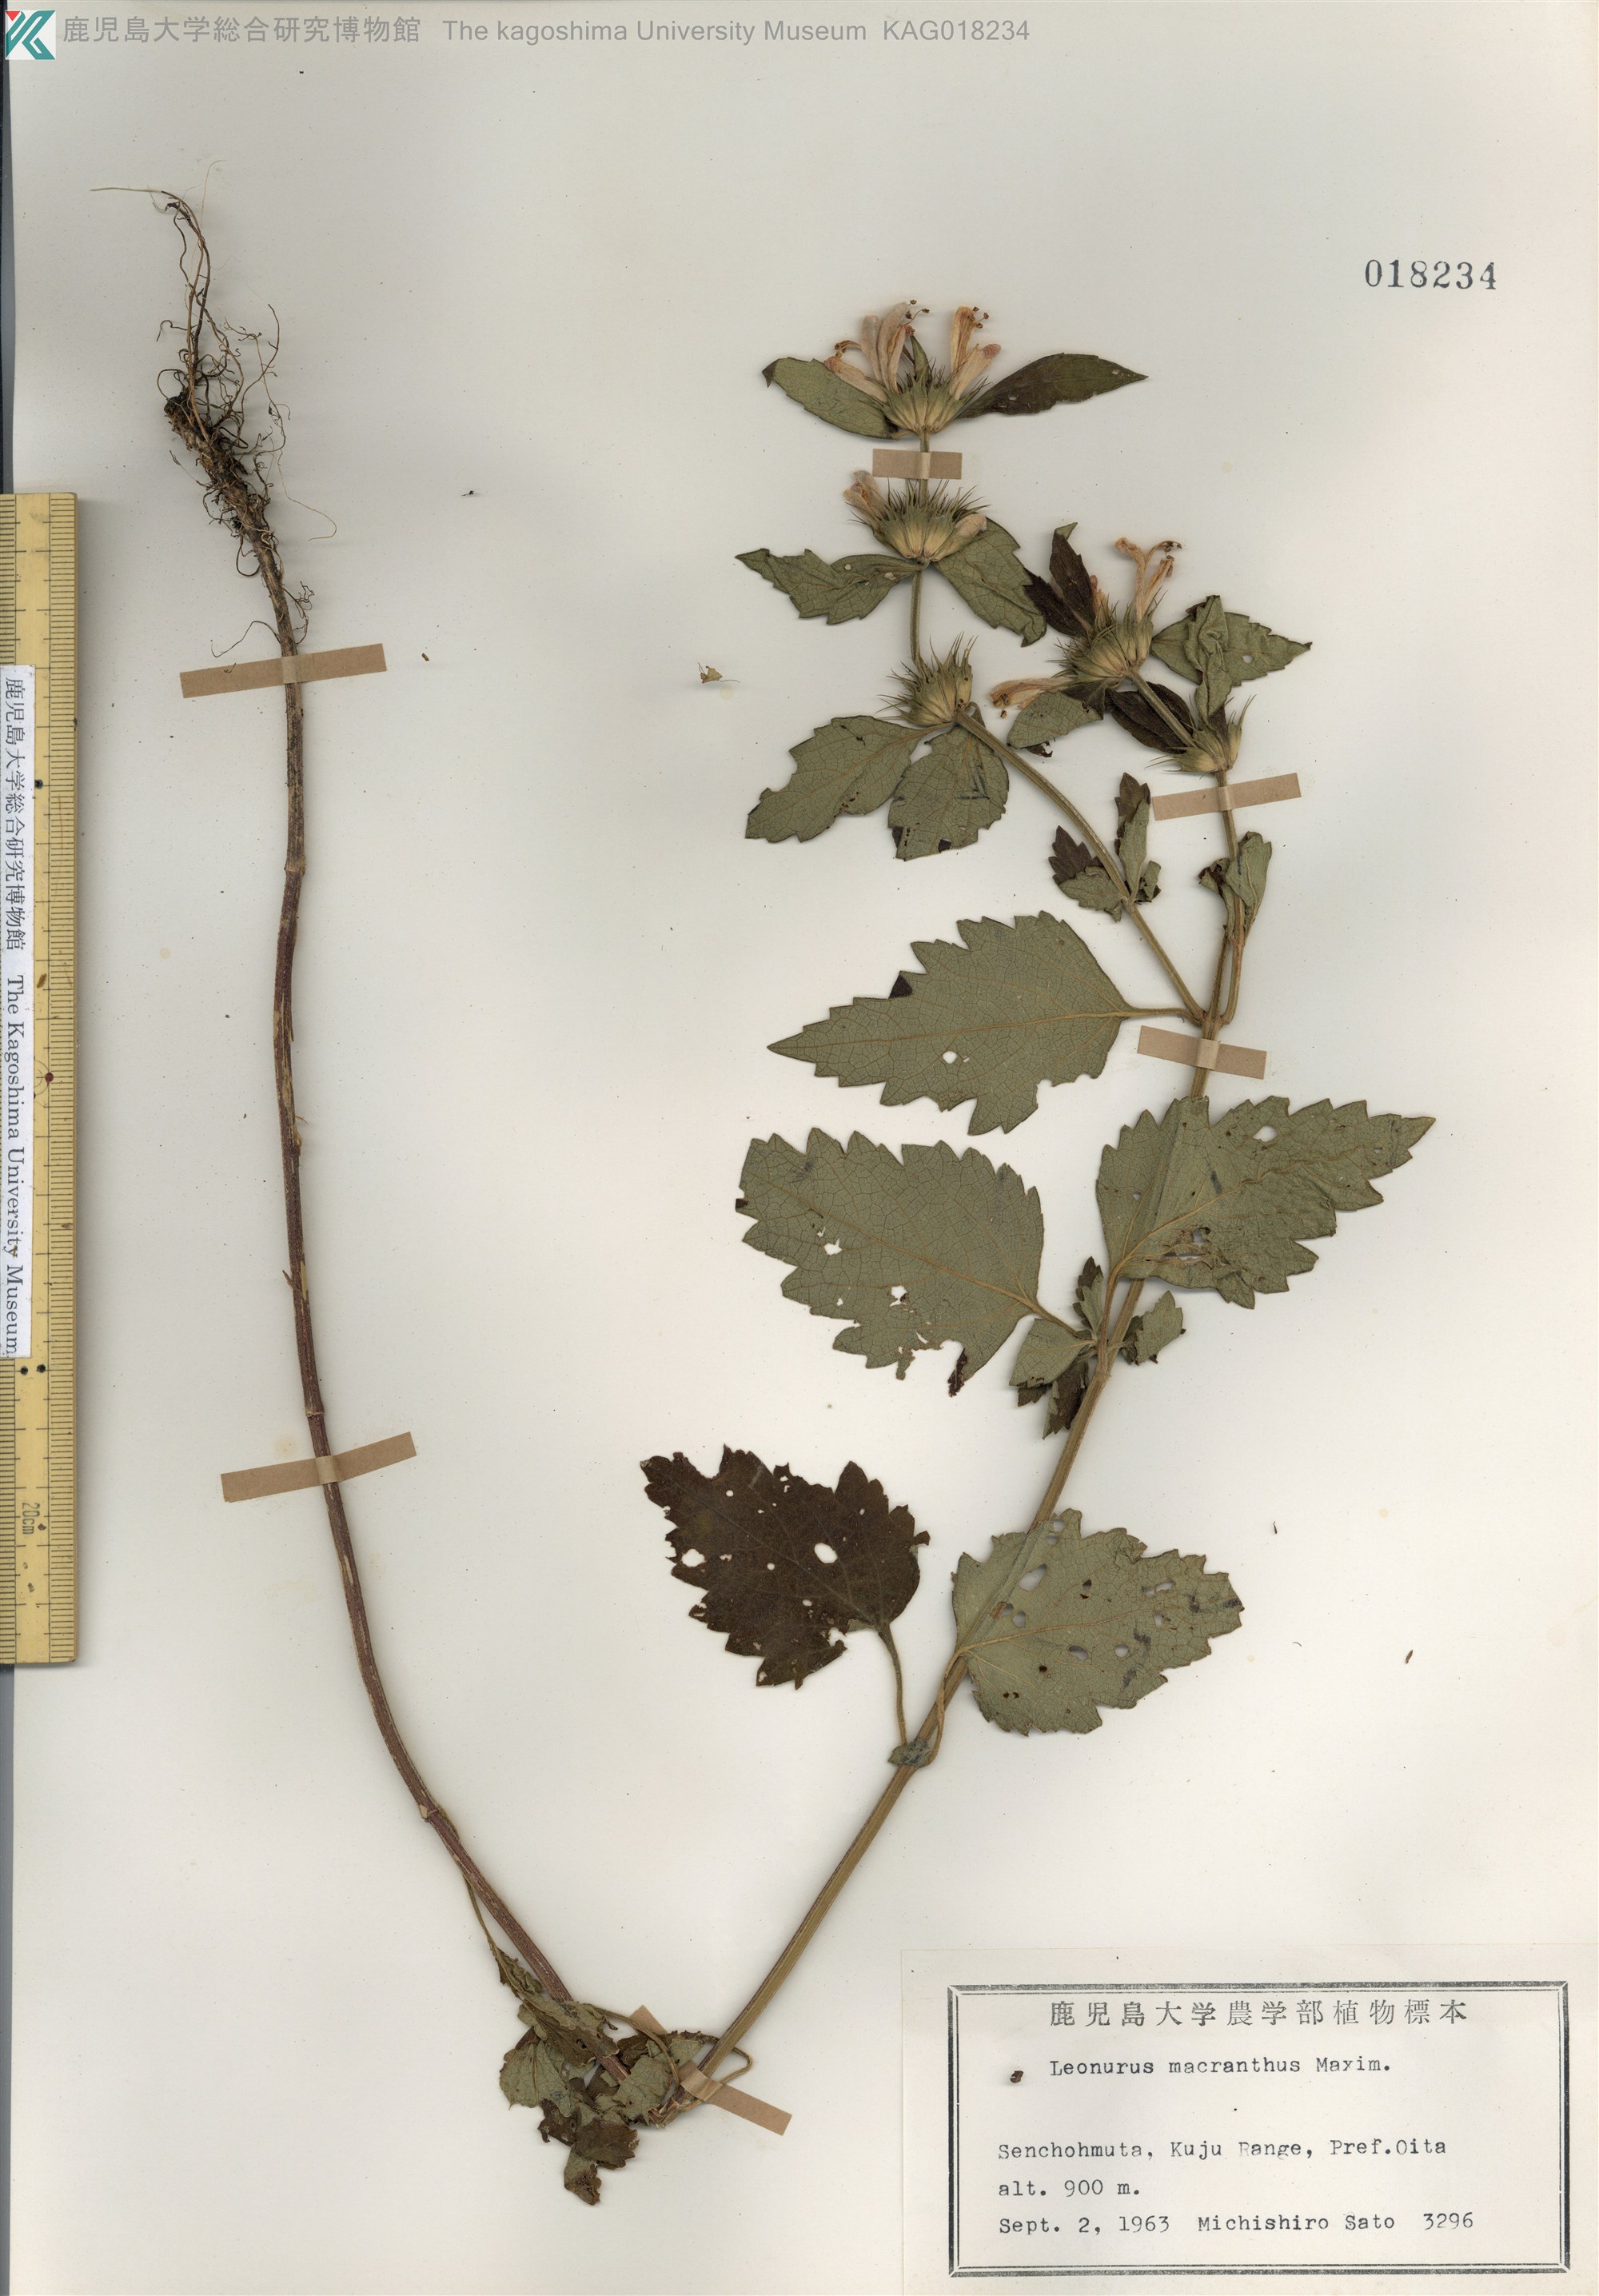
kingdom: Plantae
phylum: Tracheophyta
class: Magnoliopsida
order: Lamiales
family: Lamiaceae
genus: Leonurus
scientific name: Leonurus macranthus
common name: キセワタ
